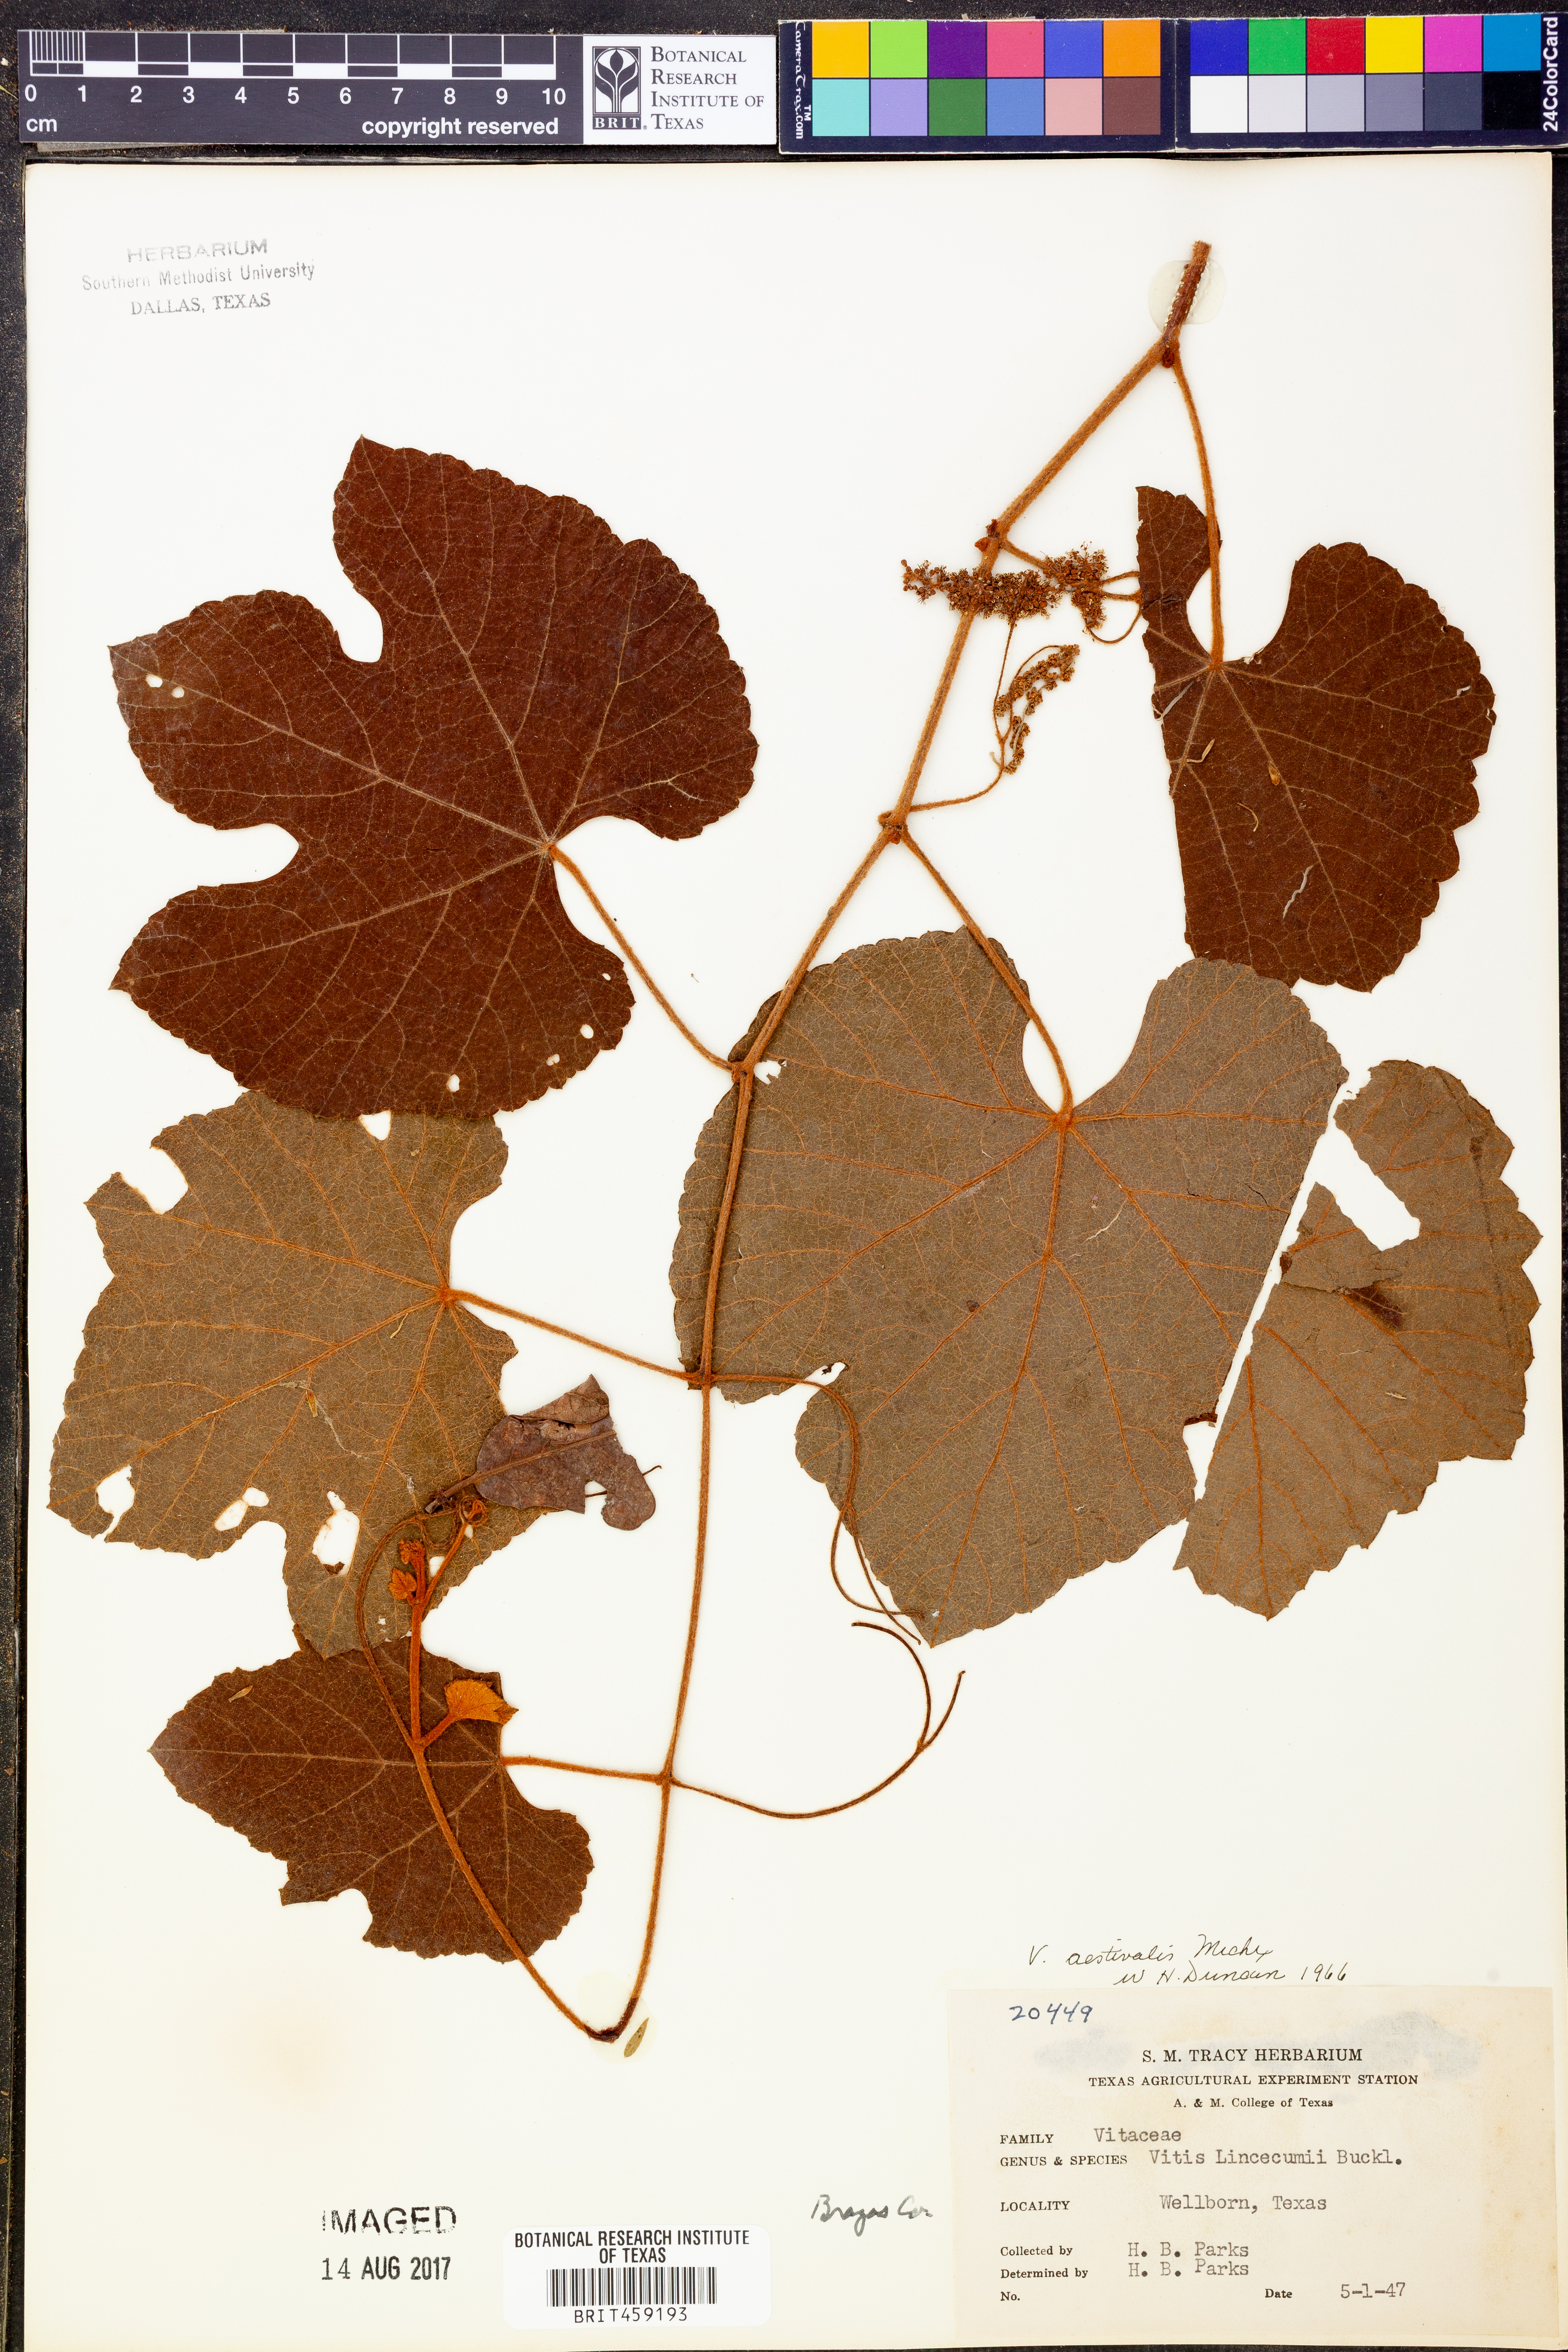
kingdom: Plantae
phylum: Tracheophyta
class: Magnoliopsida
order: Vitales
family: Vitaceae
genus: Vitis
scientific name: Vitis aestivalis
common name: Pigeon grape
